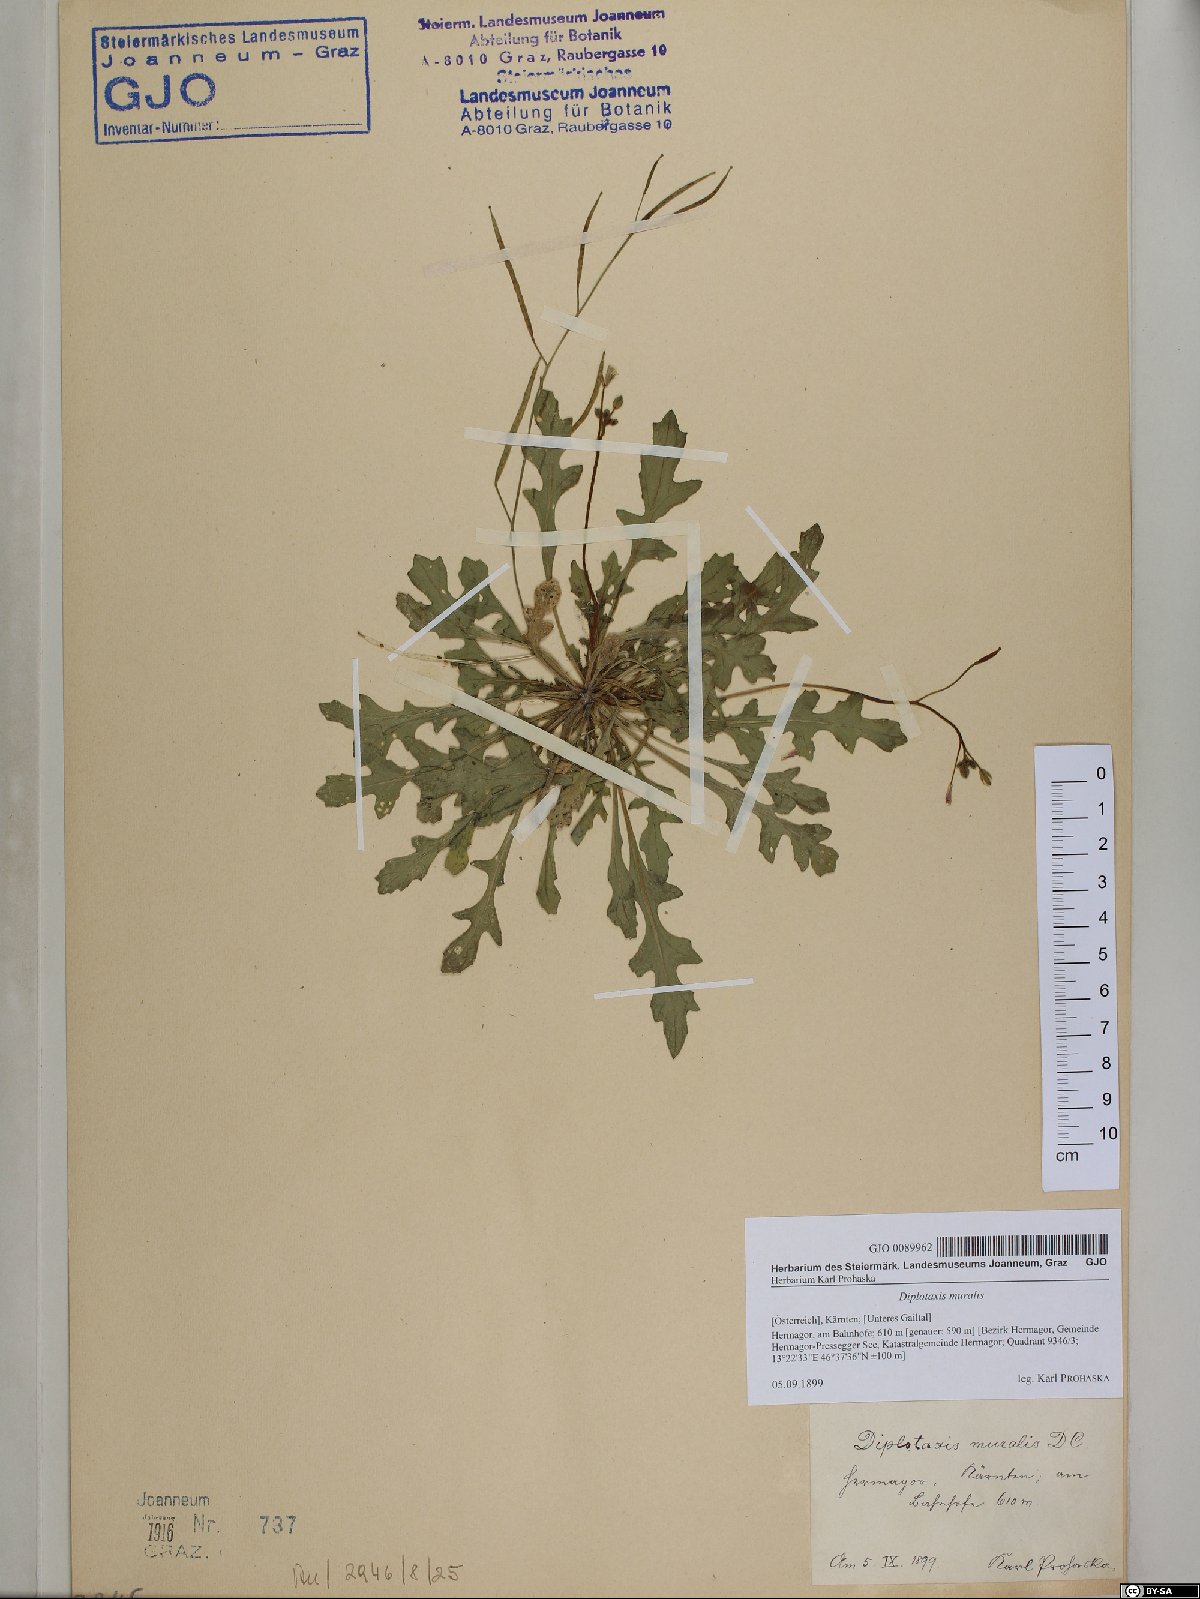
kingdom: Plantae
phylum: Tracheophyta
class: Magnoliopsida
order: Brassicales
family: Brassicaceae
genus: Diplotaxis
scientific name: Diplotaxis muralis
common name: Annual wall-rocket
